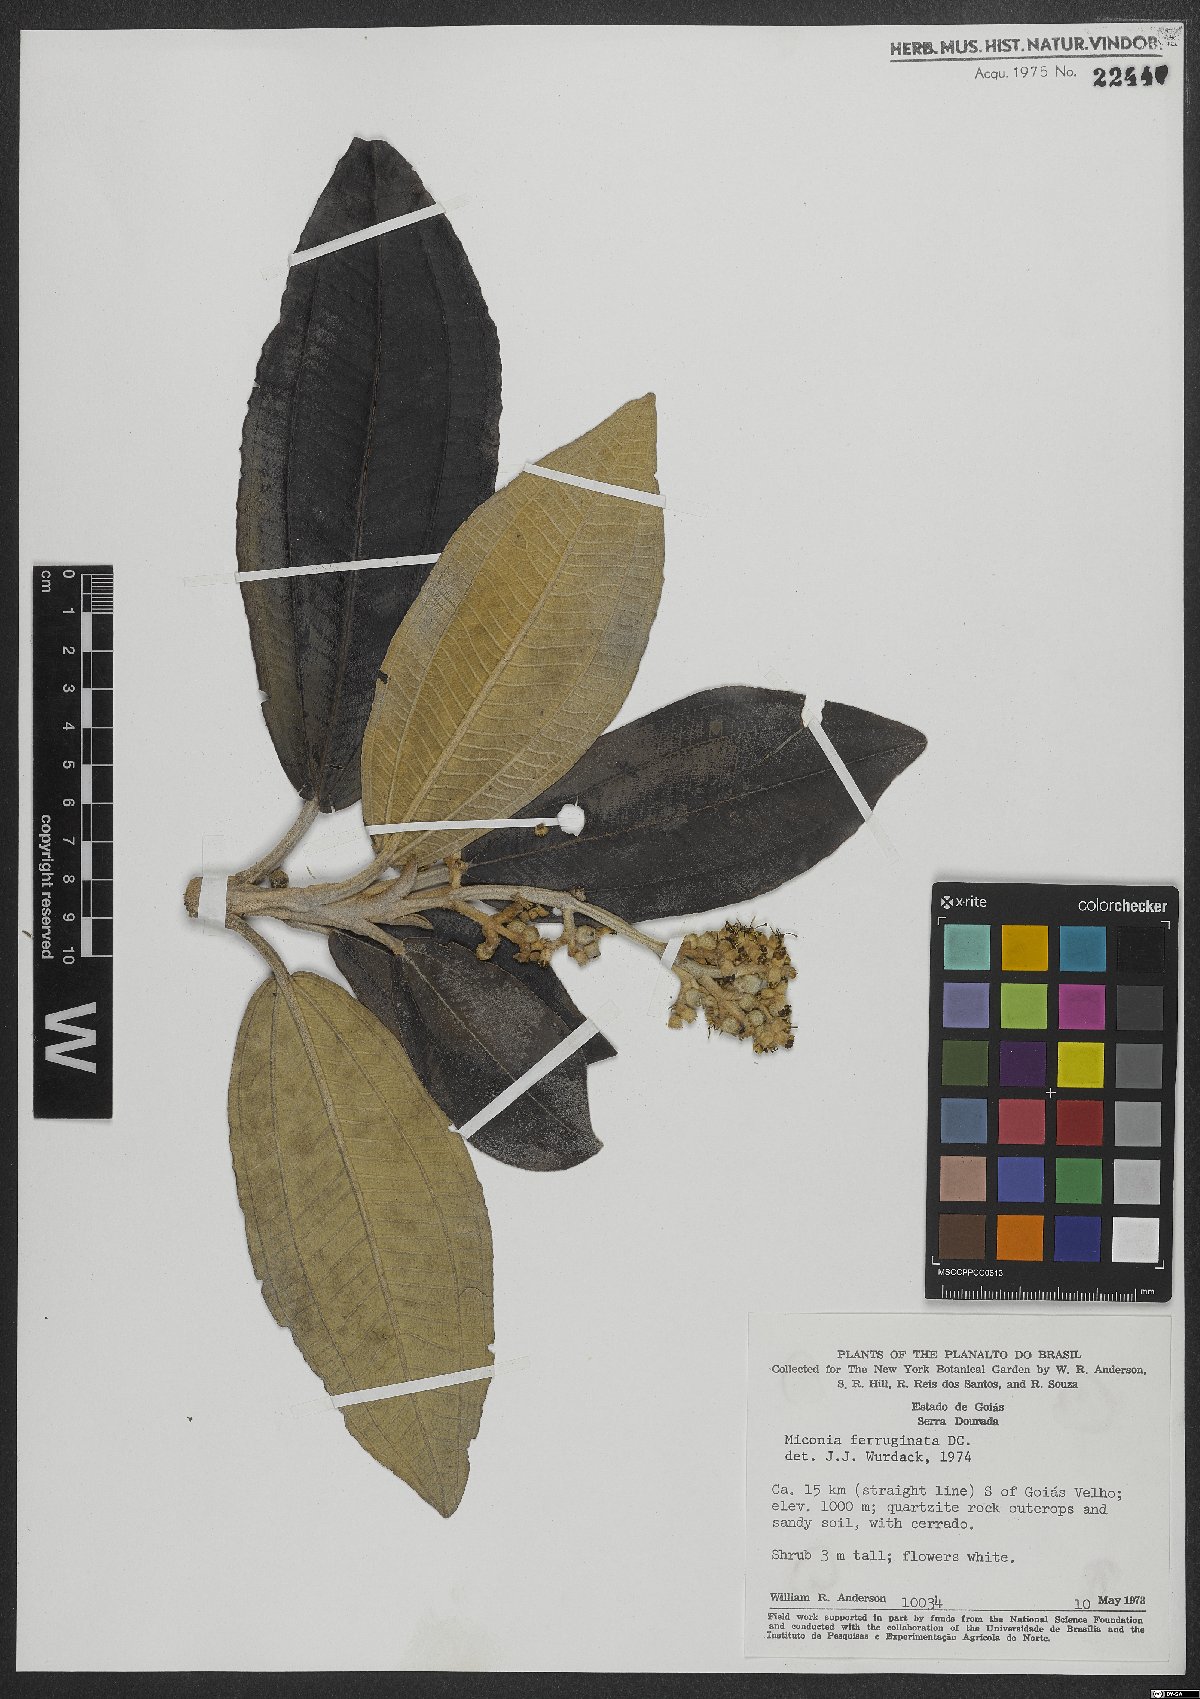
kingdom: Plantae
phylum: Tracheophyta
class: Magnoliopsida
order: Myrtales
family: Melastomataceae
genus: Miconia
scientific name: Miconia ferruginata
